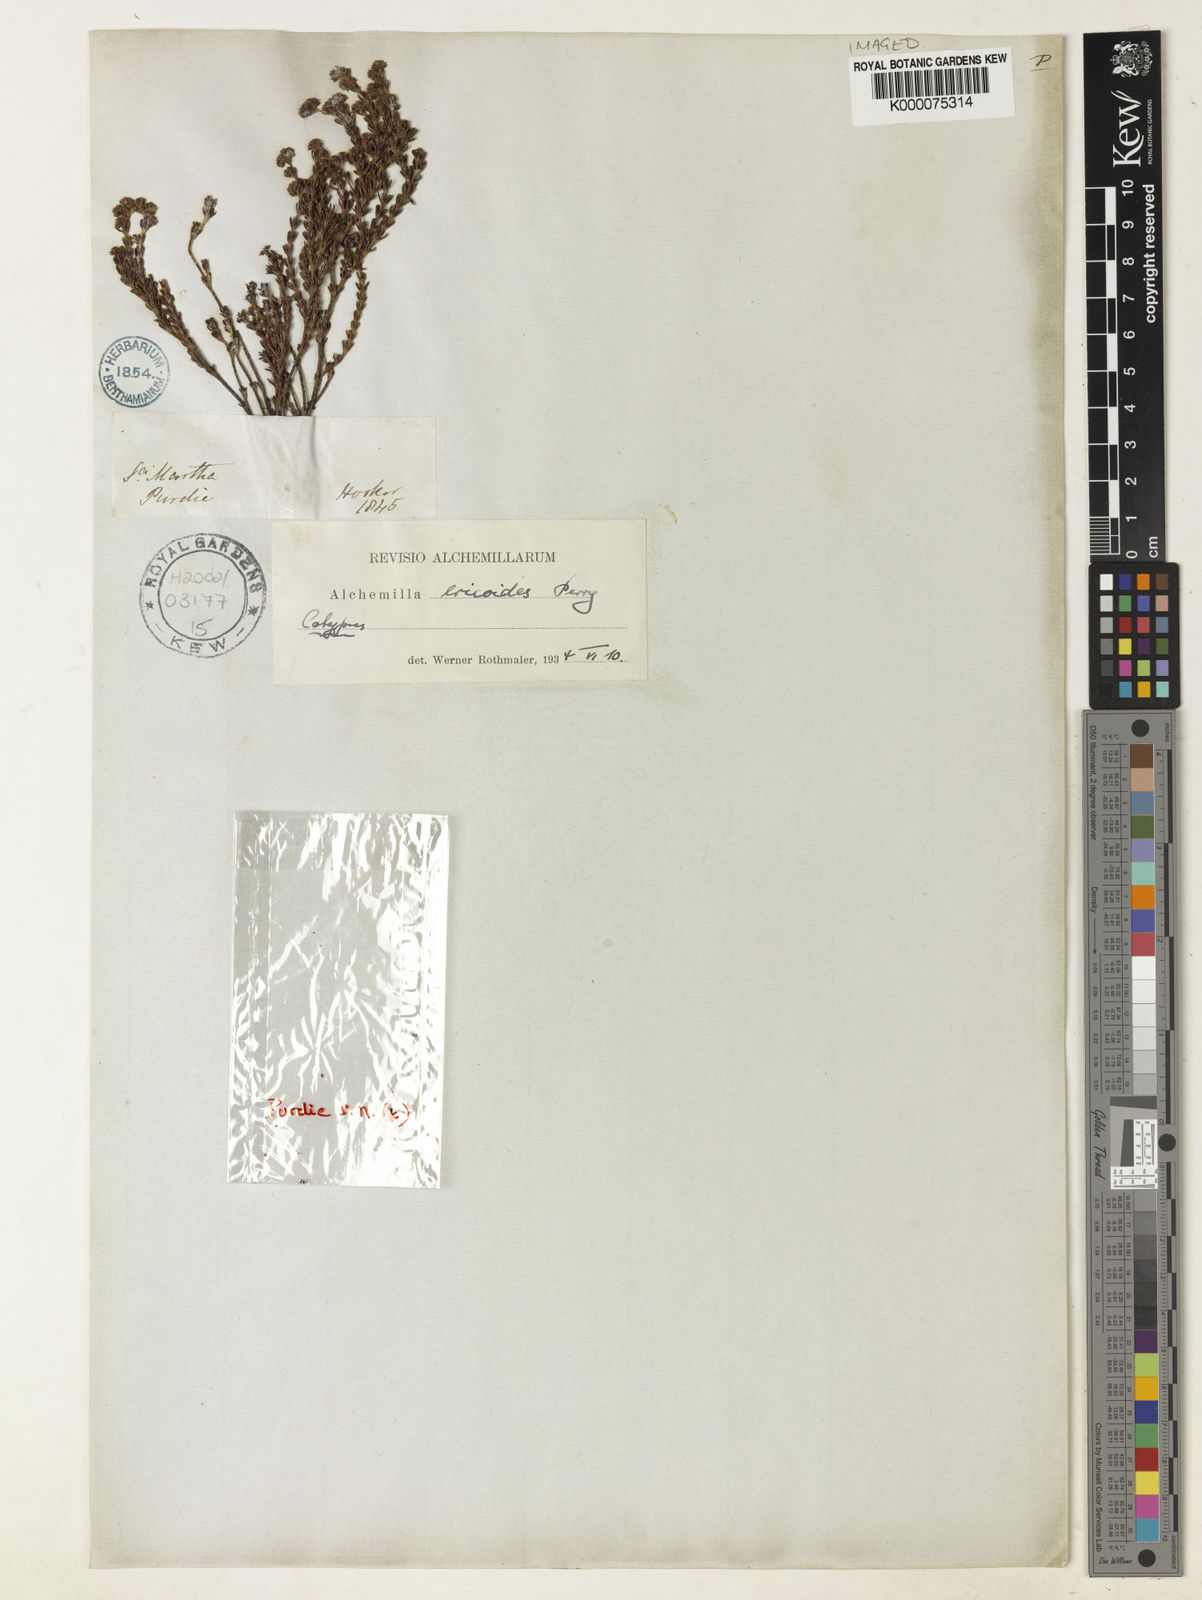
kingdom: Plantae
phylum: Tracheophyta
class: Magnoliopsida
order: Rosales
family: Rosaceae
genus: Lachemilla
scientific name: Lachemilla ericoides
